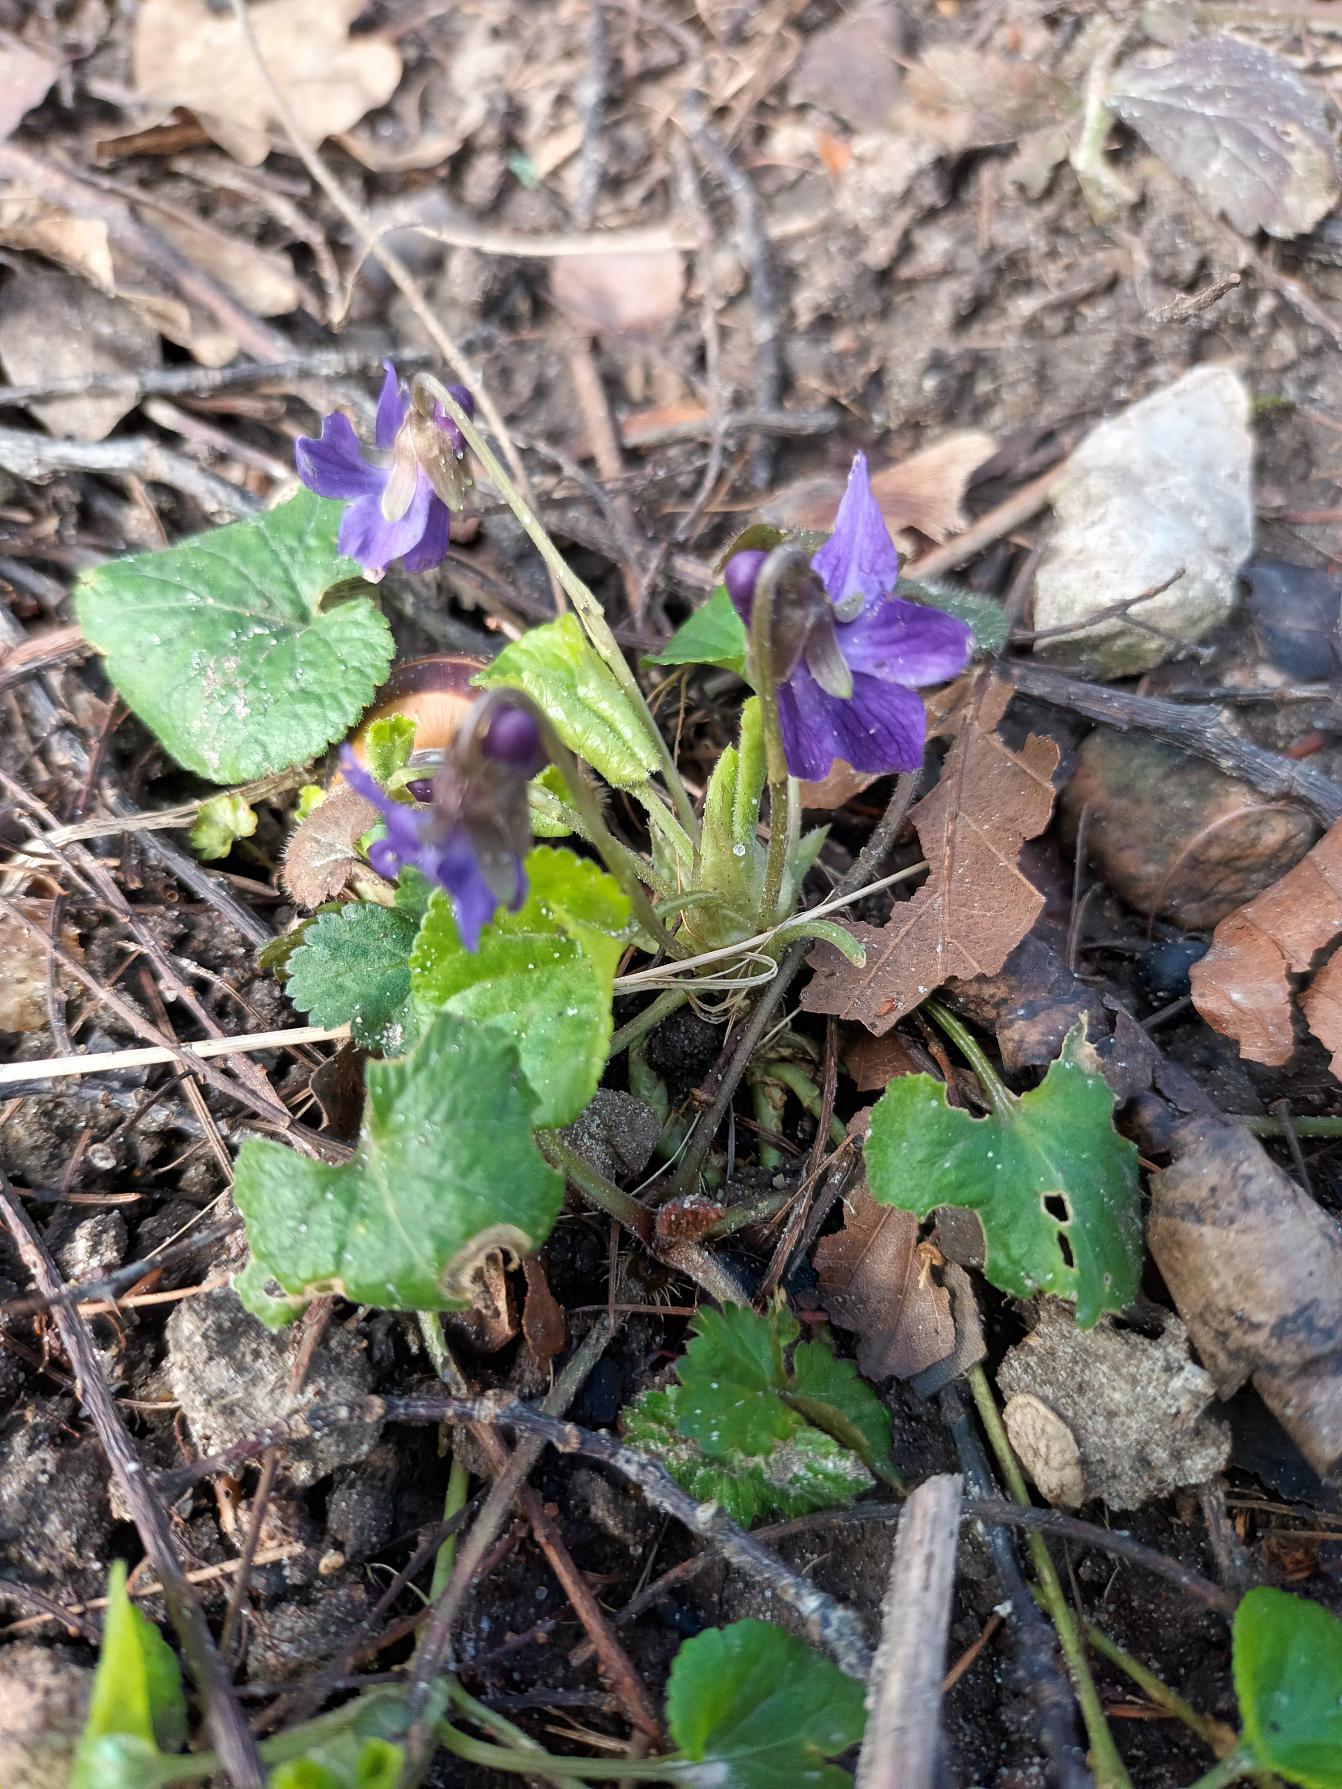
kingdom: Plantae
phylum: Tracheophyta
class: Magnoliopsida
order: Malpighiales
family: Violaceae
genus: Viola
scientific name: Viola odorata
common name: Marts-viol
